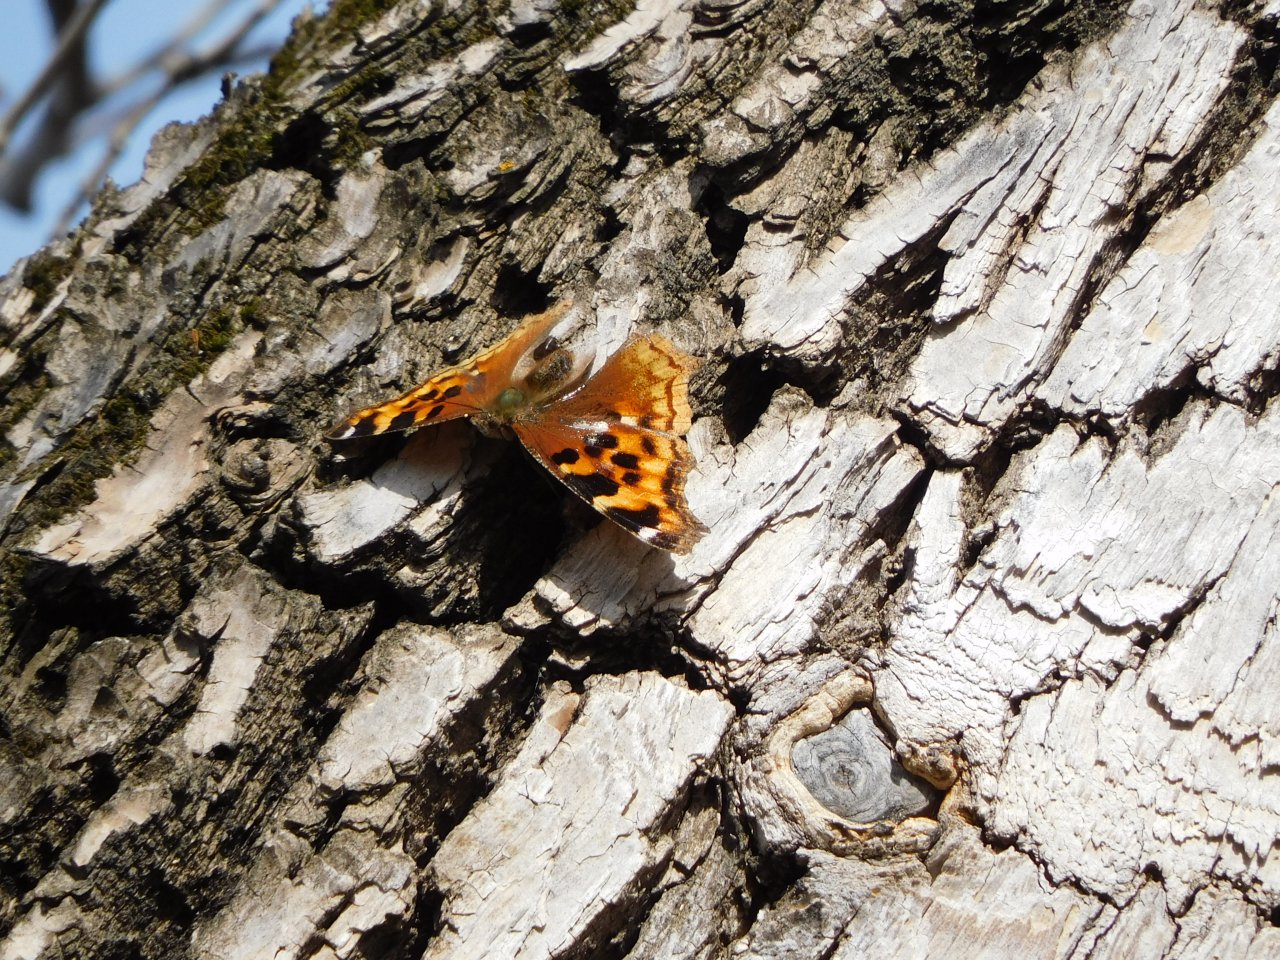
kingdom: Animalia
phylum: Arthropoda
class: Insecta
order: Lepidoptera
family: Nymphalidae
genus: Polygonia
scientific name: Polygonia vaualbum
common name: Compton Tortoiseshell
